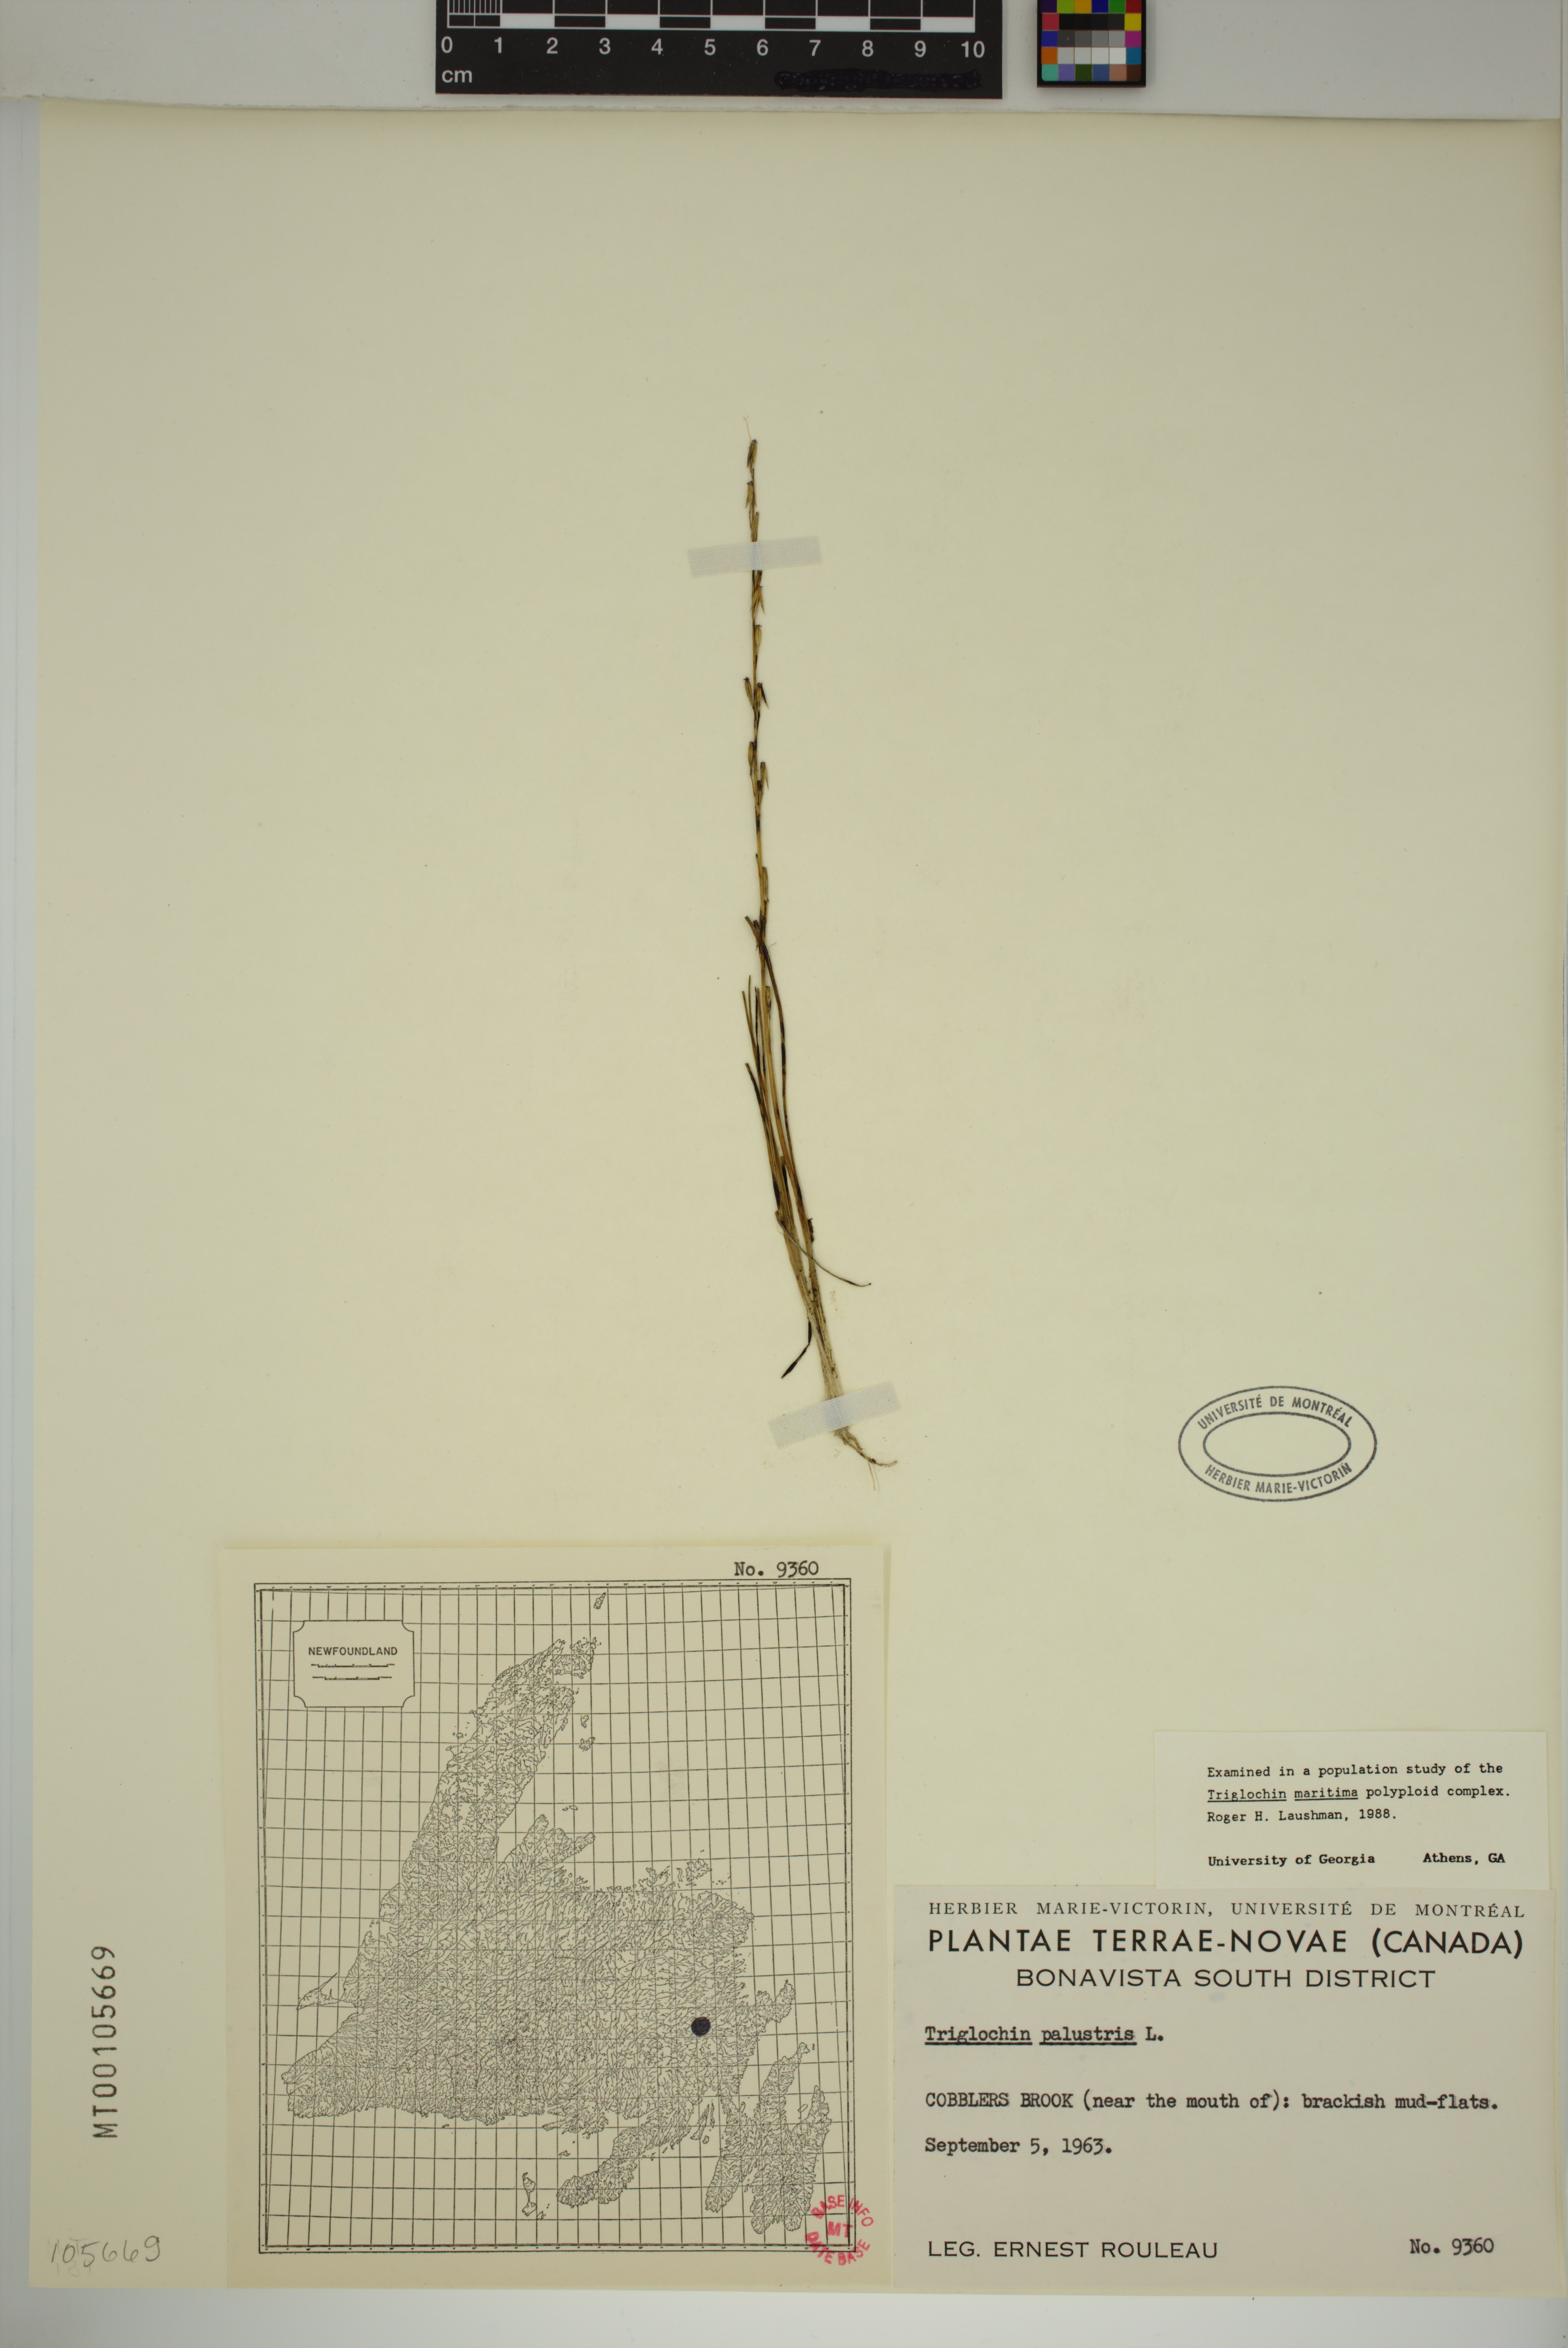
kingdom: Plantae
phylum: Tracheophyta
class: Liliopsida
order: Alismatales
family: Juncaginaceae
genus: Triglochin
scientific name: Triglochin palustris
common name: Marsh arrowgrass
